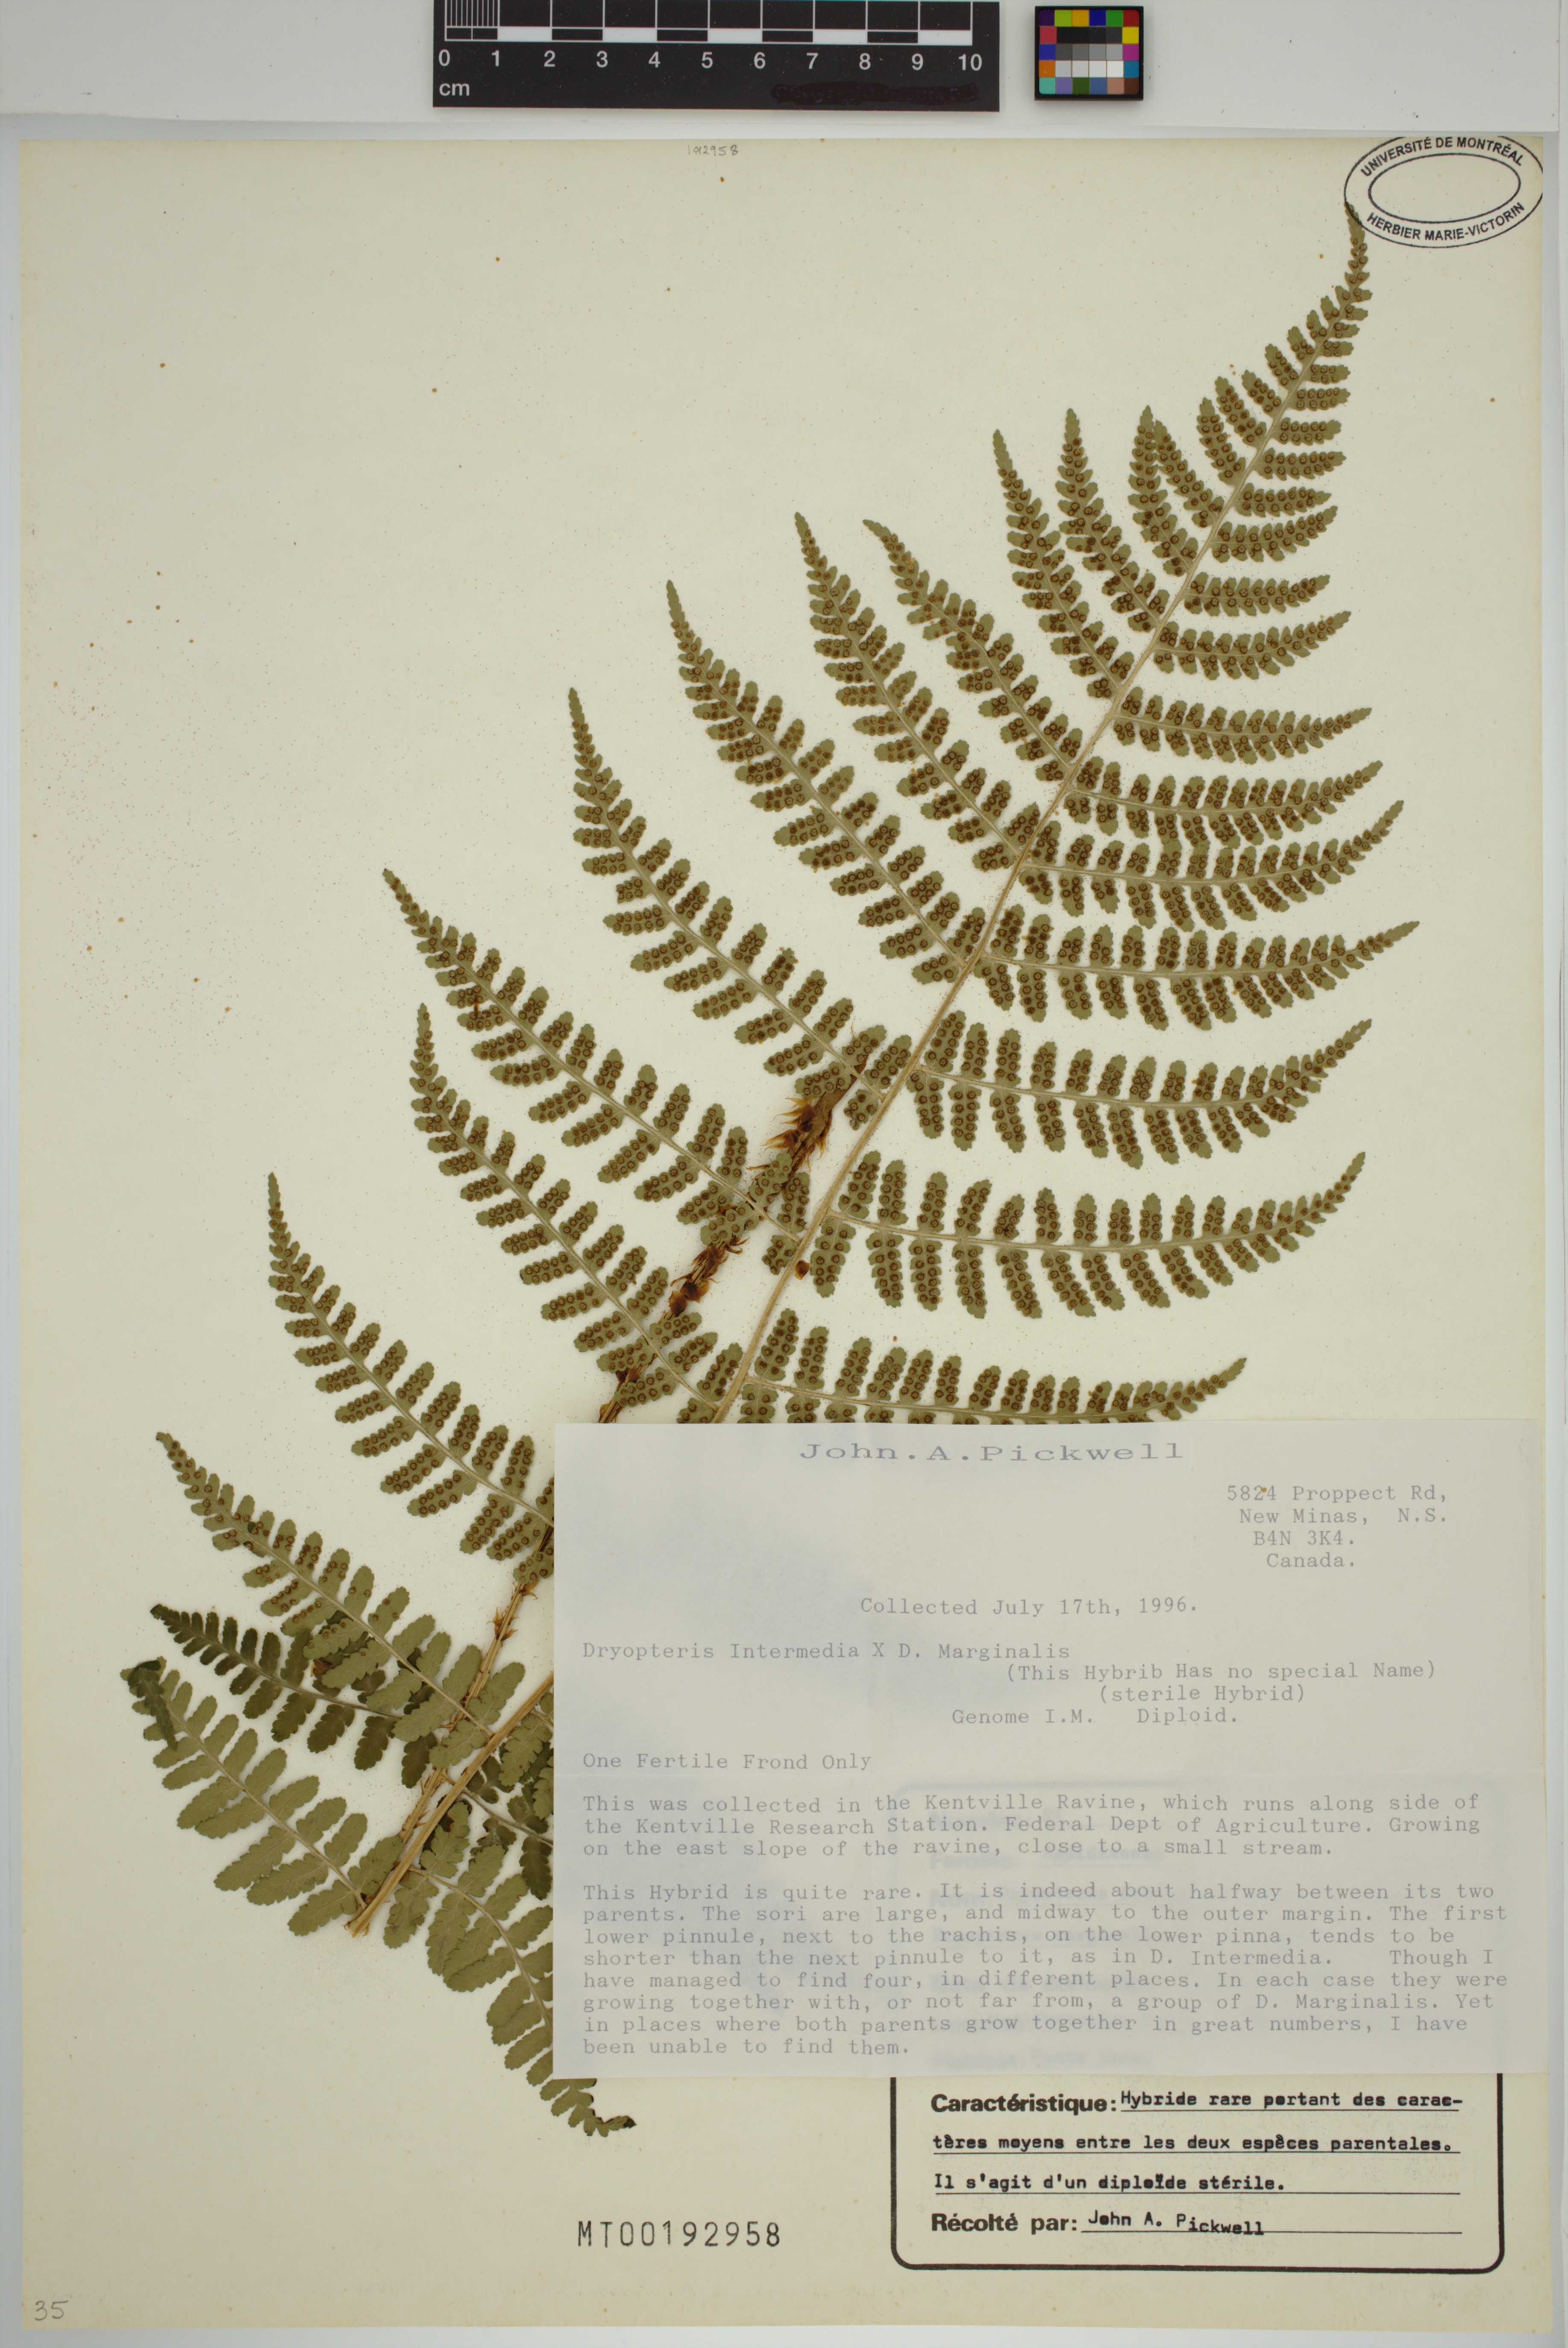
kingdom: Plantae
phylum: Tracheophyta
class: Polypodiopsida
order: Polypodiales
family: Dryopteridaceae
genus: Dryopteris
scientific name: Dryopteris
